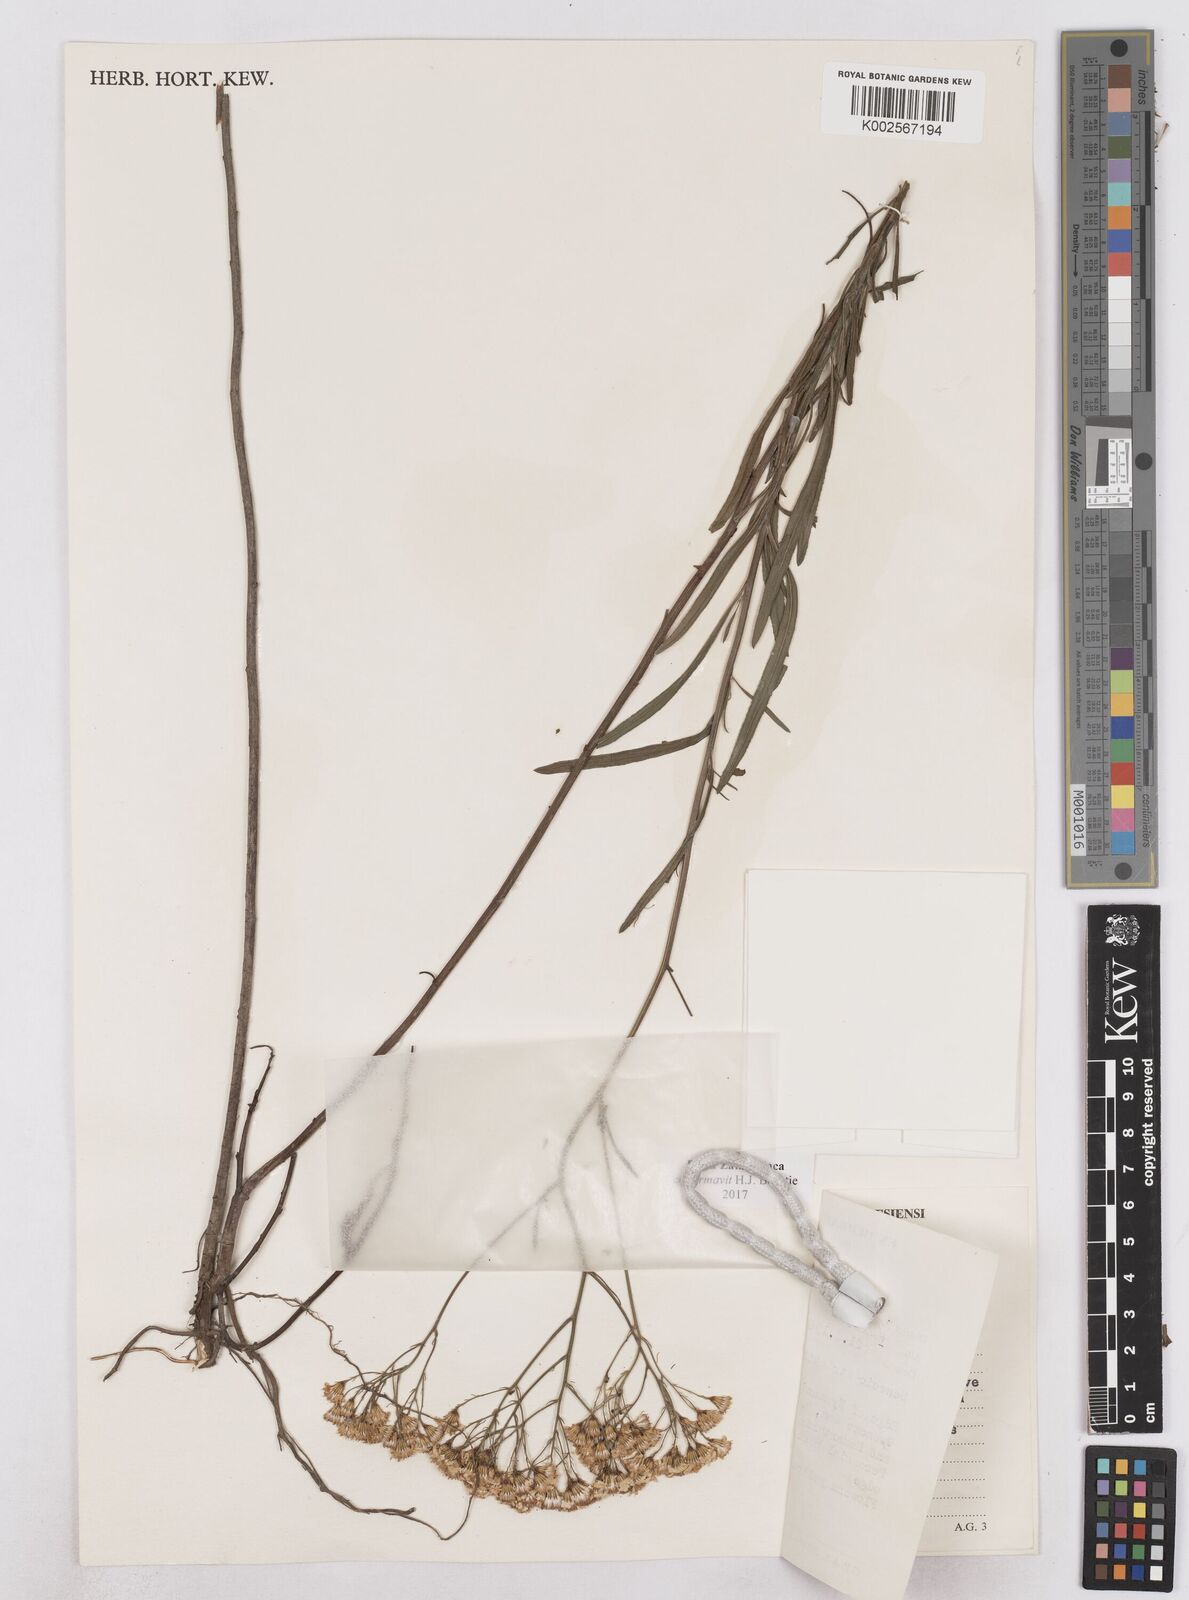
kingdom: Plantae
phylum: Tracheophyta
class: Magnoliopsida
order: Asterales
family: Asteraceae
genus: Senecio
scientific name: Senecio strictifolius
